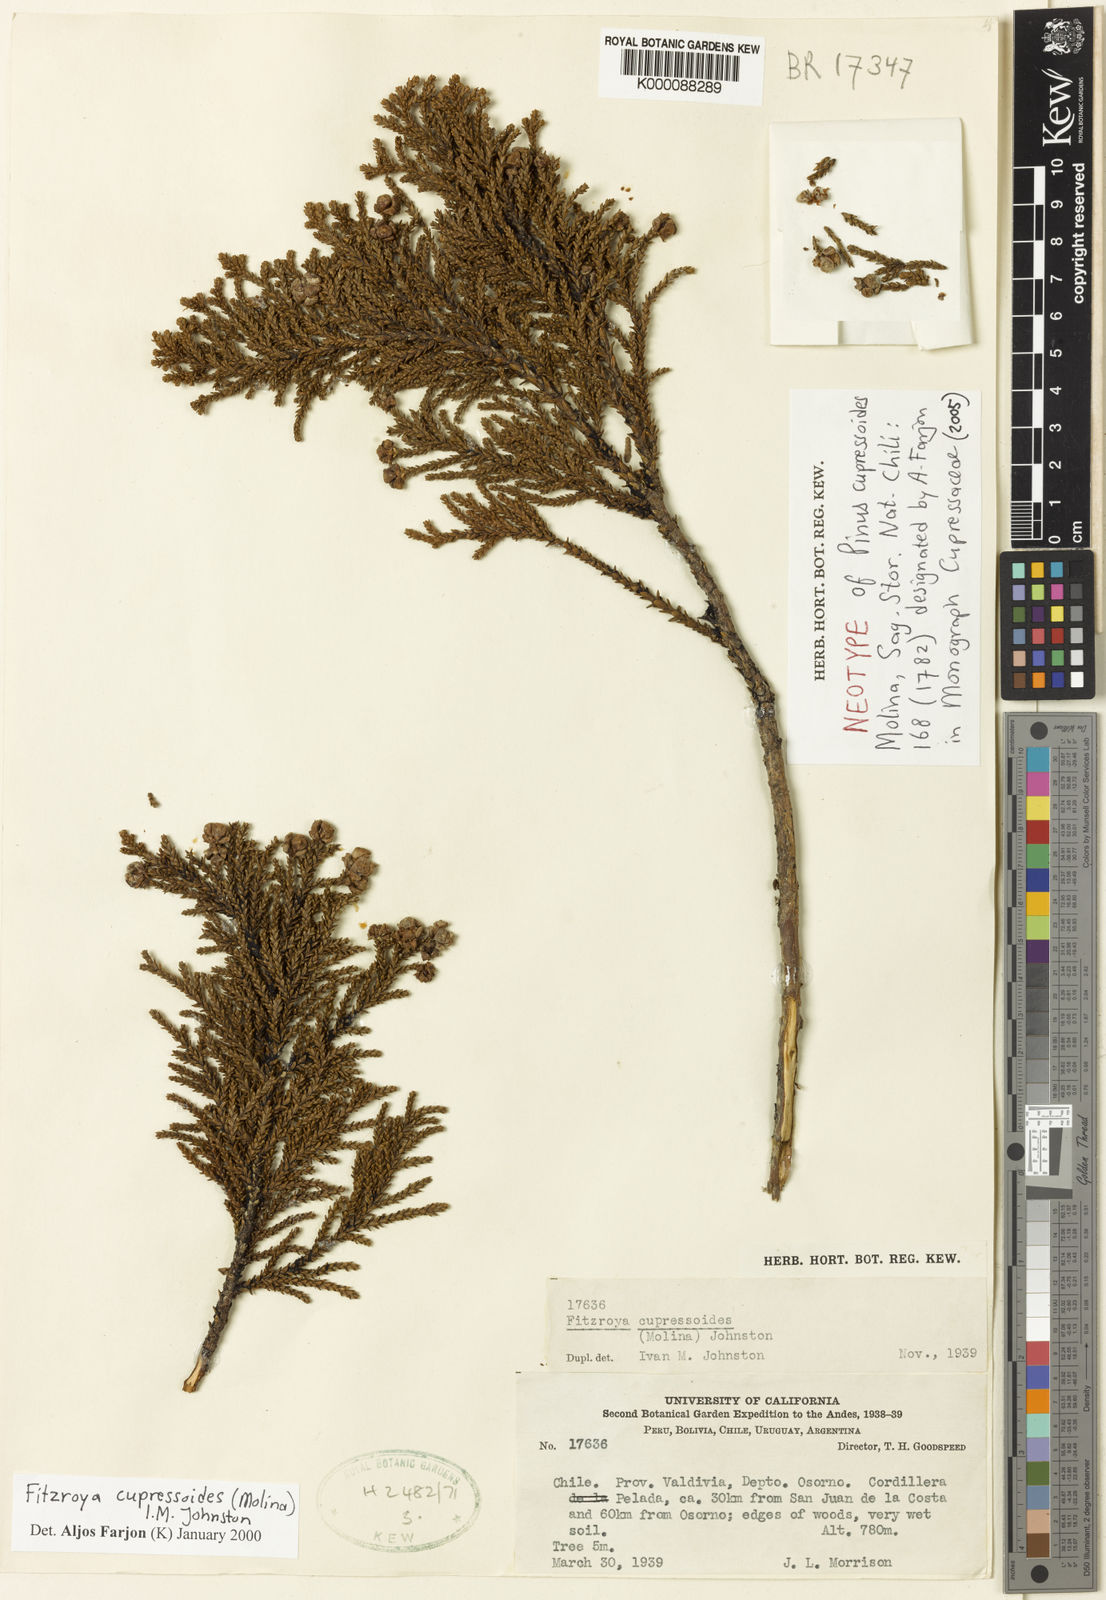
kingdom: Plantae
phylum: Tracheophyta
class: Pinopsida
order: Pinales
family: Cupressaceae
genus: Fitzroya
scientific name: Fitzroya cupressoides
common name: Patagonian cypress
